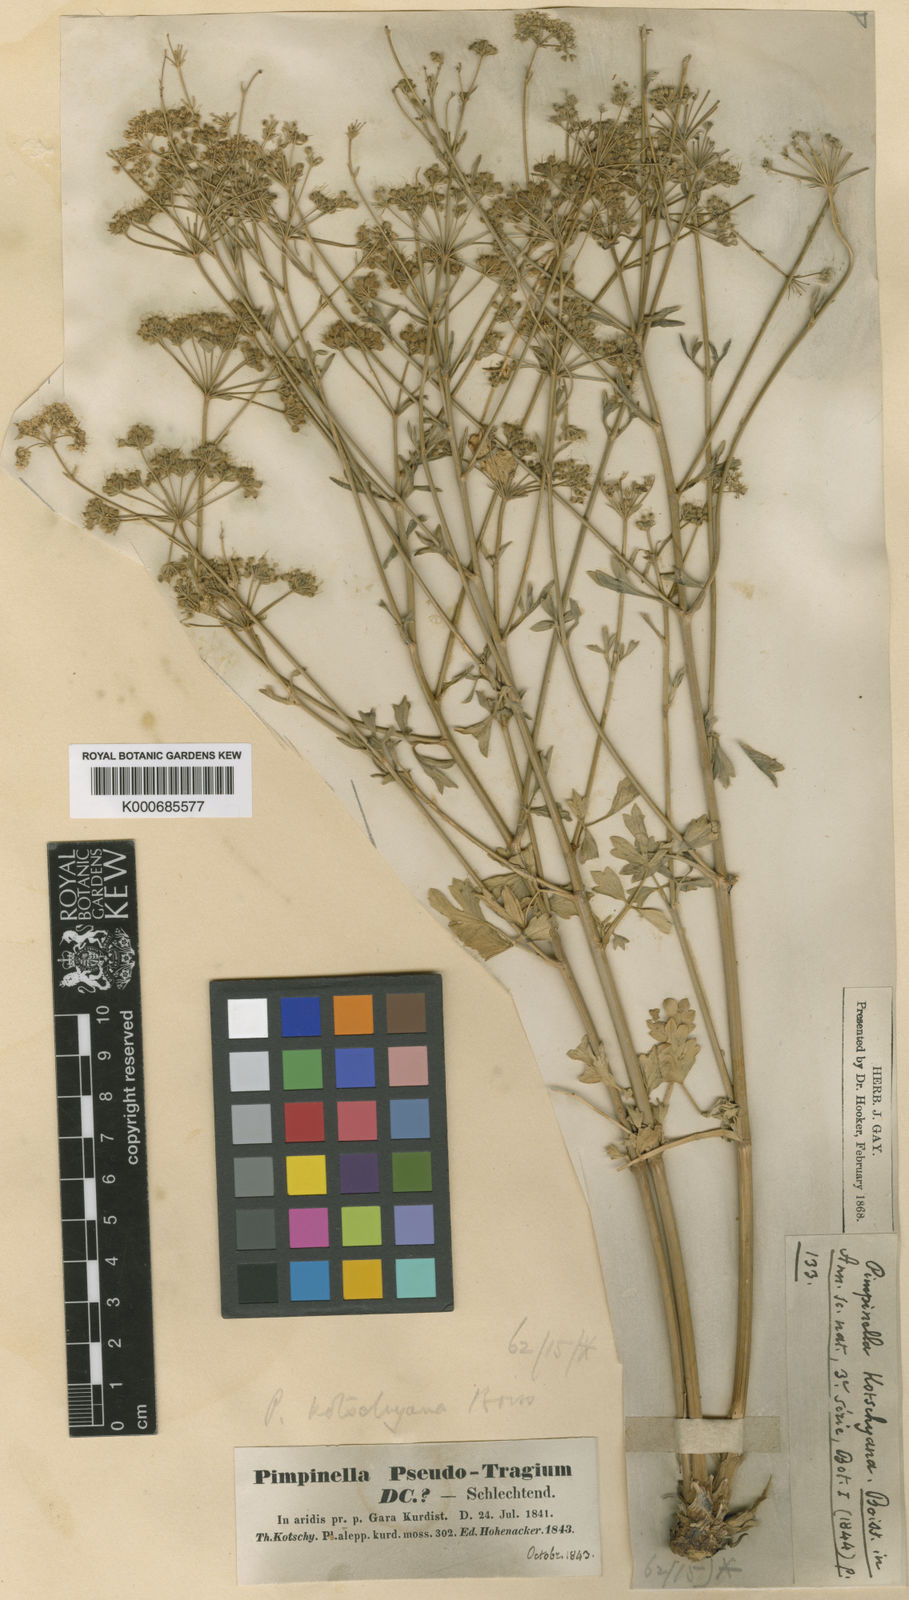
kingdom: Plantae
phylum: Tracheophyta
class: Magnoliopsida
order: Apiales
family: Apiaceae
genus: Pimpinella
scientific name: Pimpinella kotschyana
